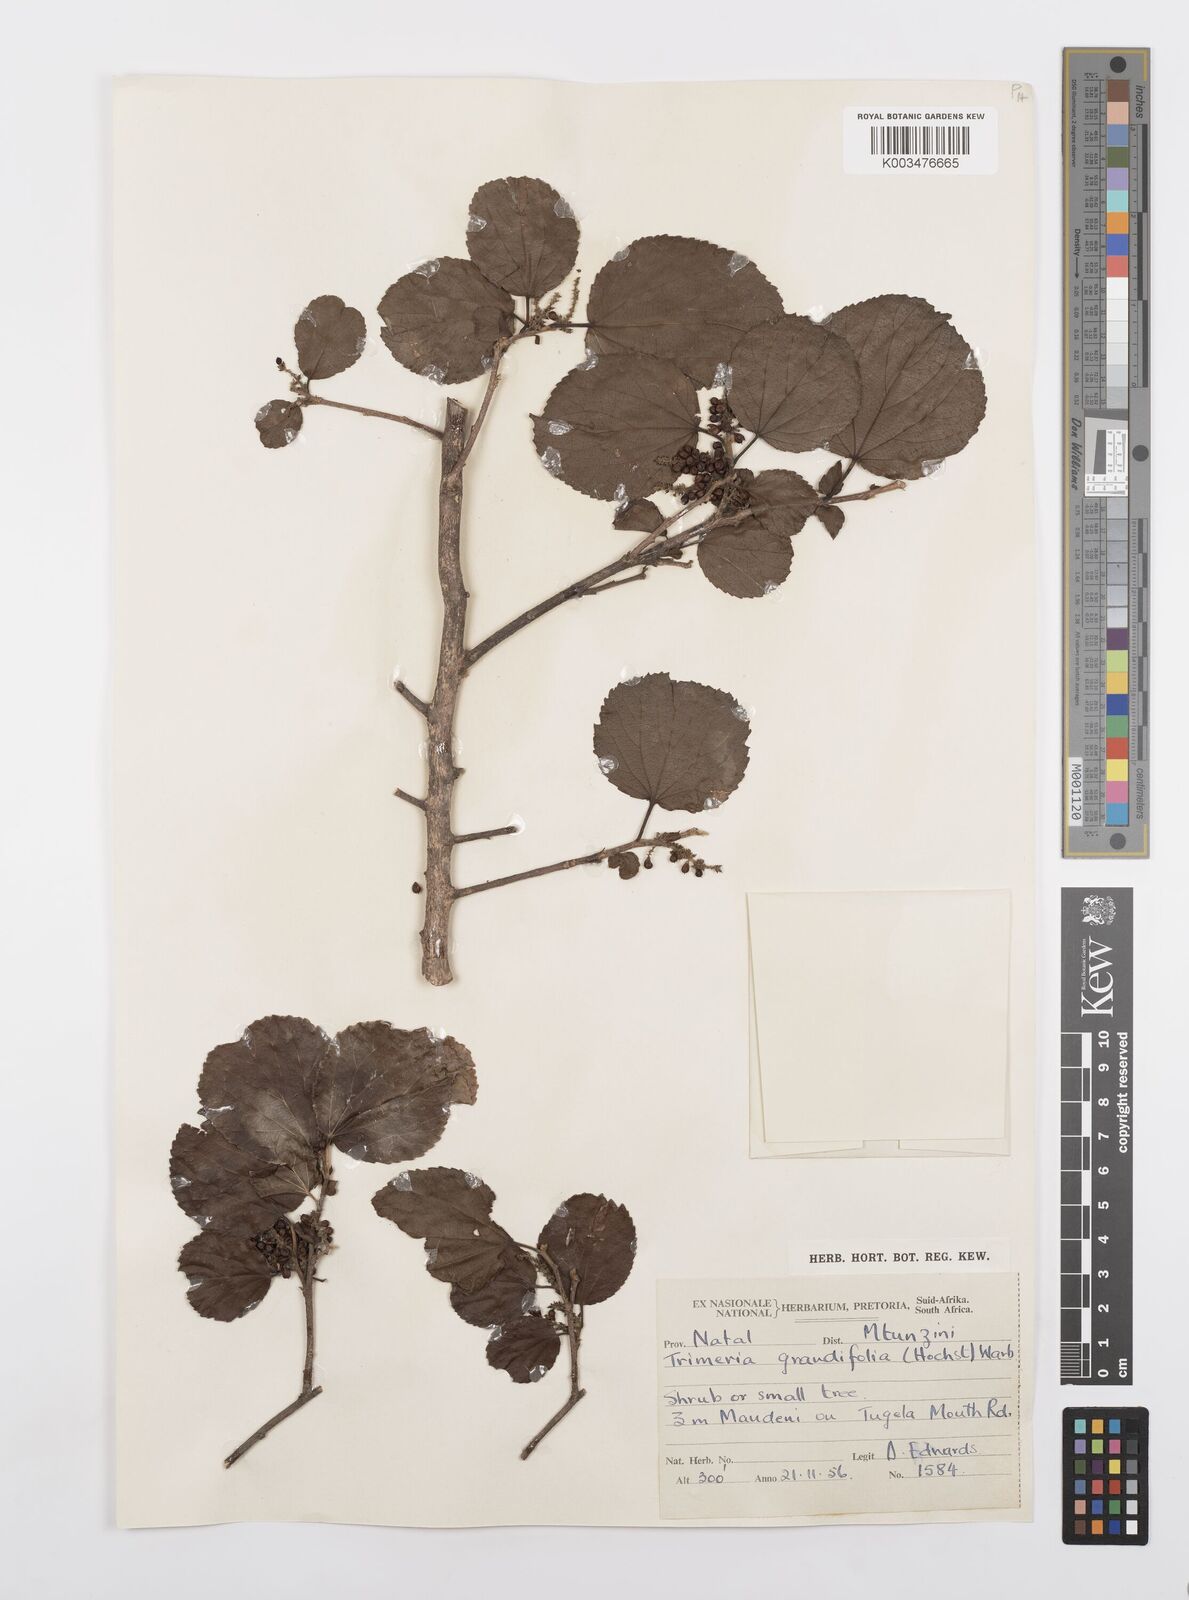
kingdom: Plantae
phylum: Tracheophyta
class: Magnoliopsida
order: Malpighiales
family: Salicaceae
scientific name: Salicaceae
